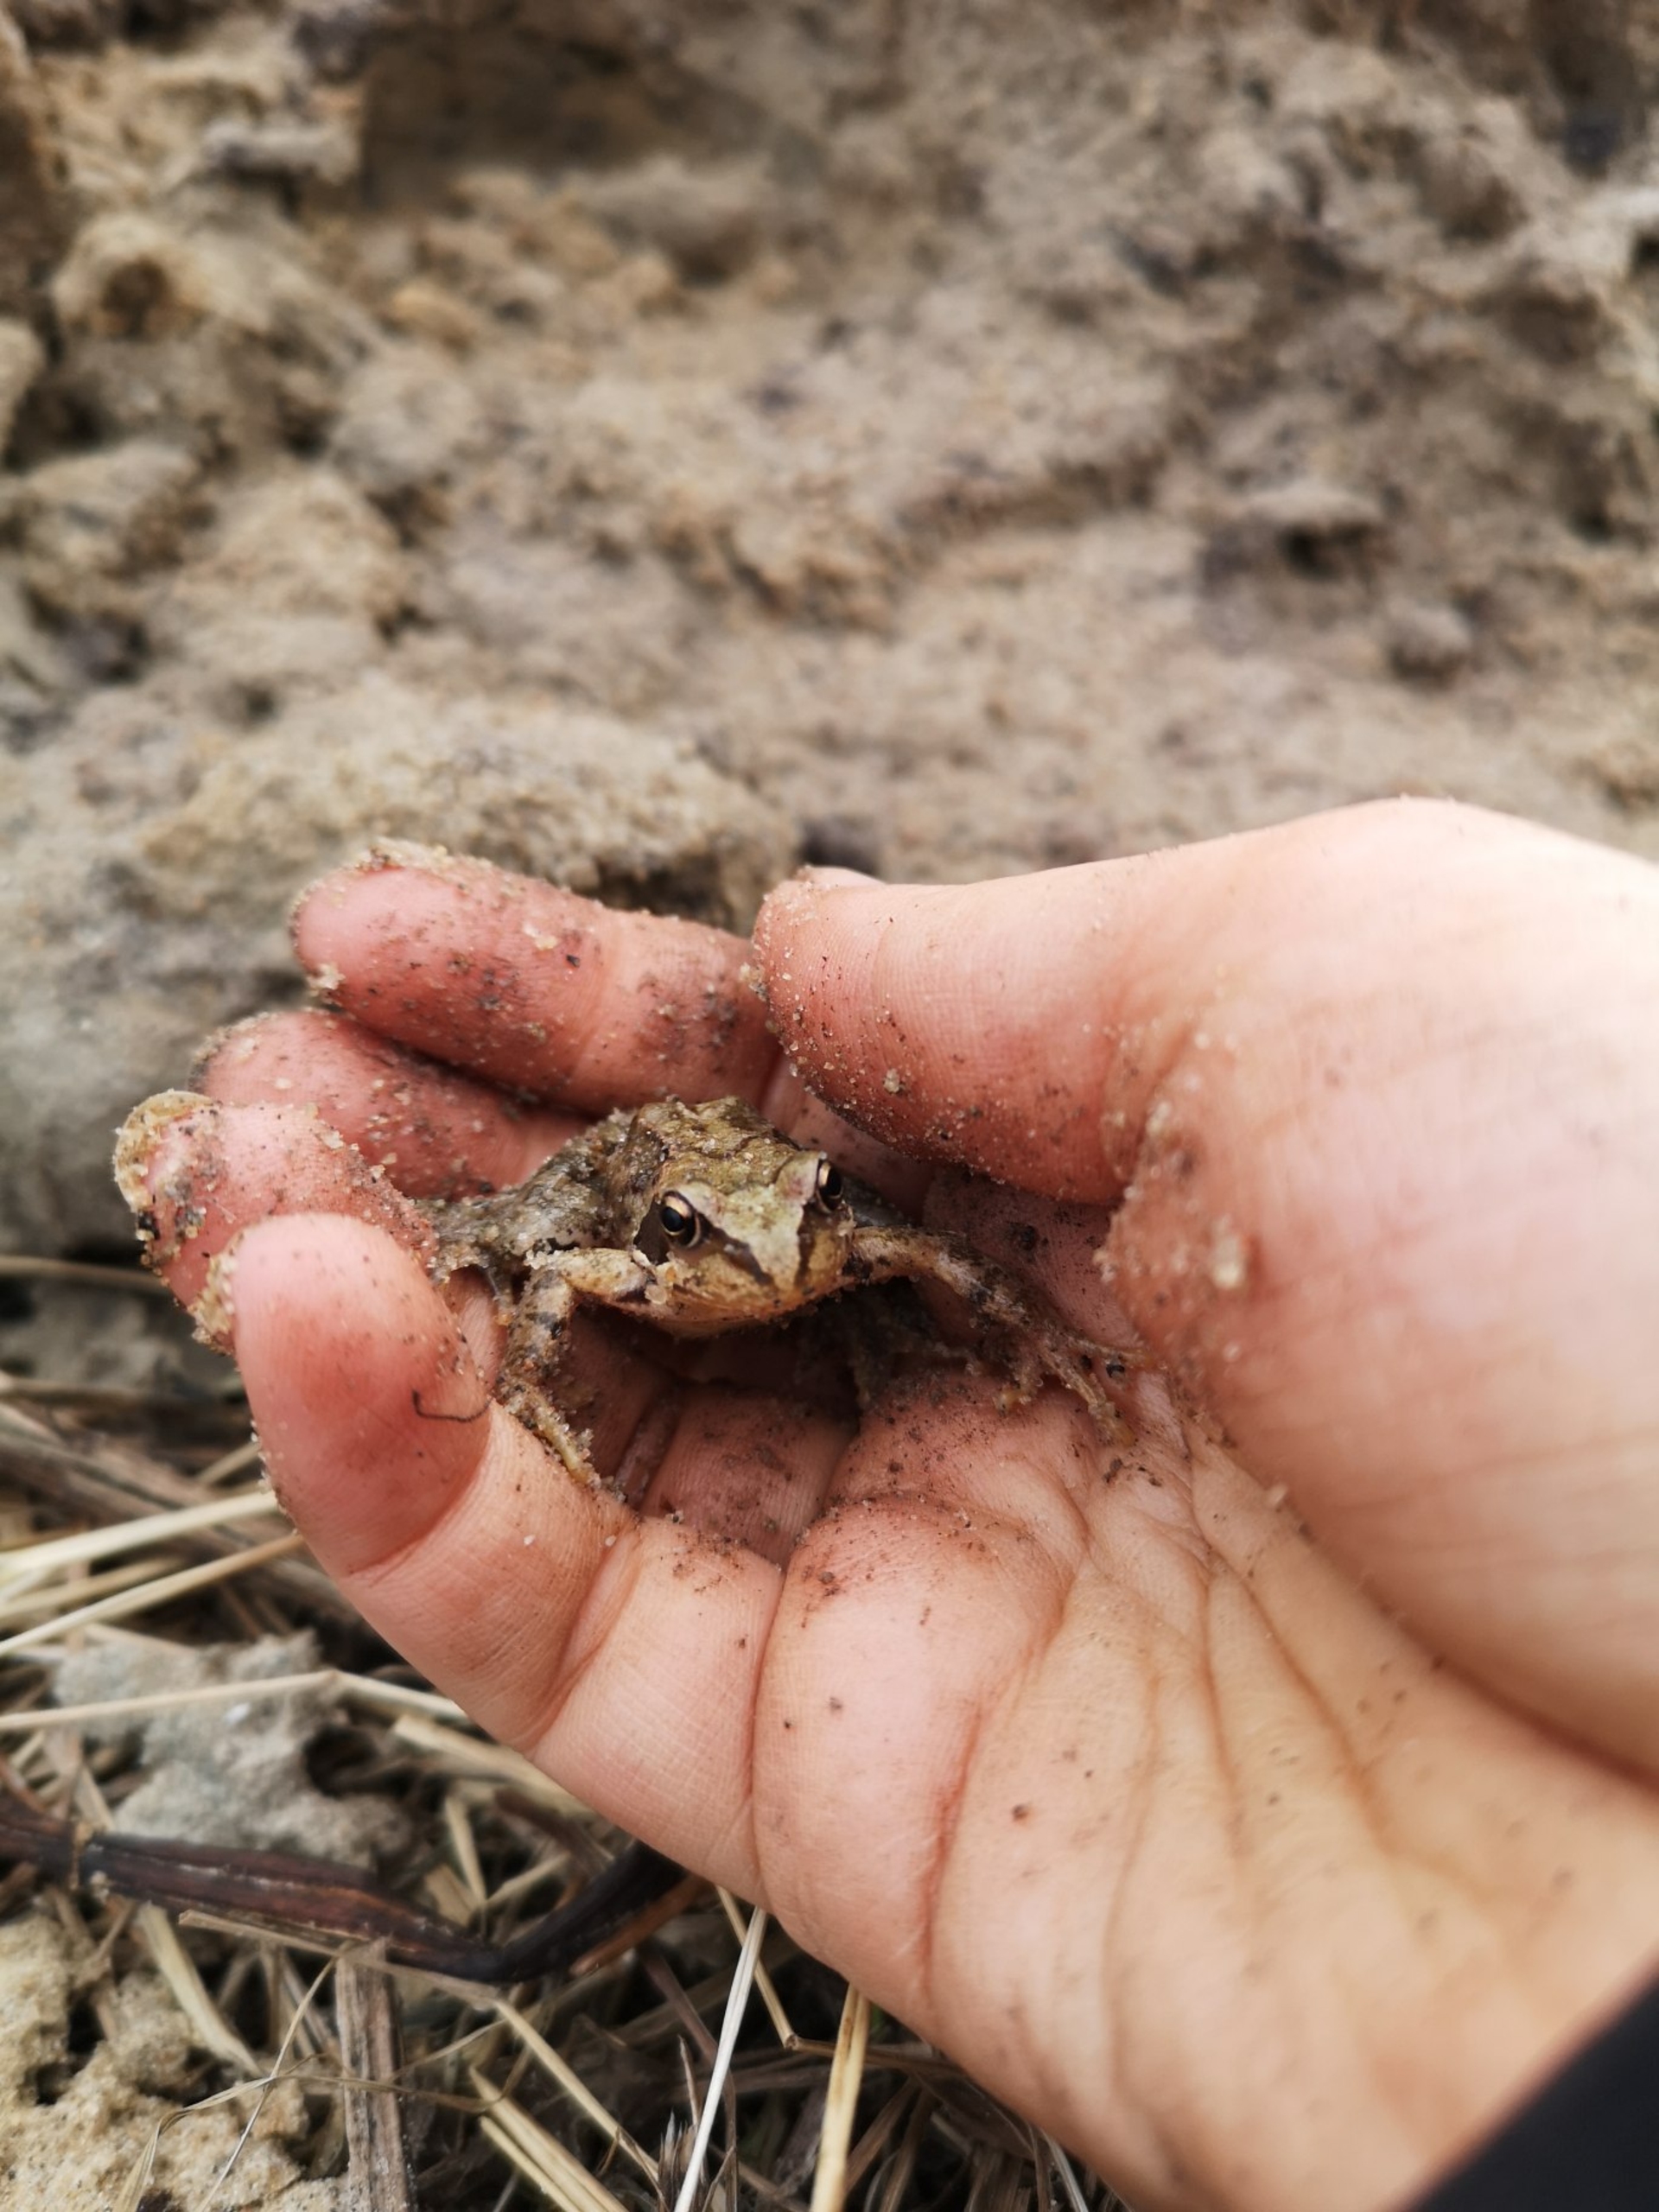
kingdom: Animalia
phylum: Chordata
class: Amphibia
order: Anura
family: Ranidae
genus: Rana
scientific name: Rana temporaria
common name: Butsnudet frø
